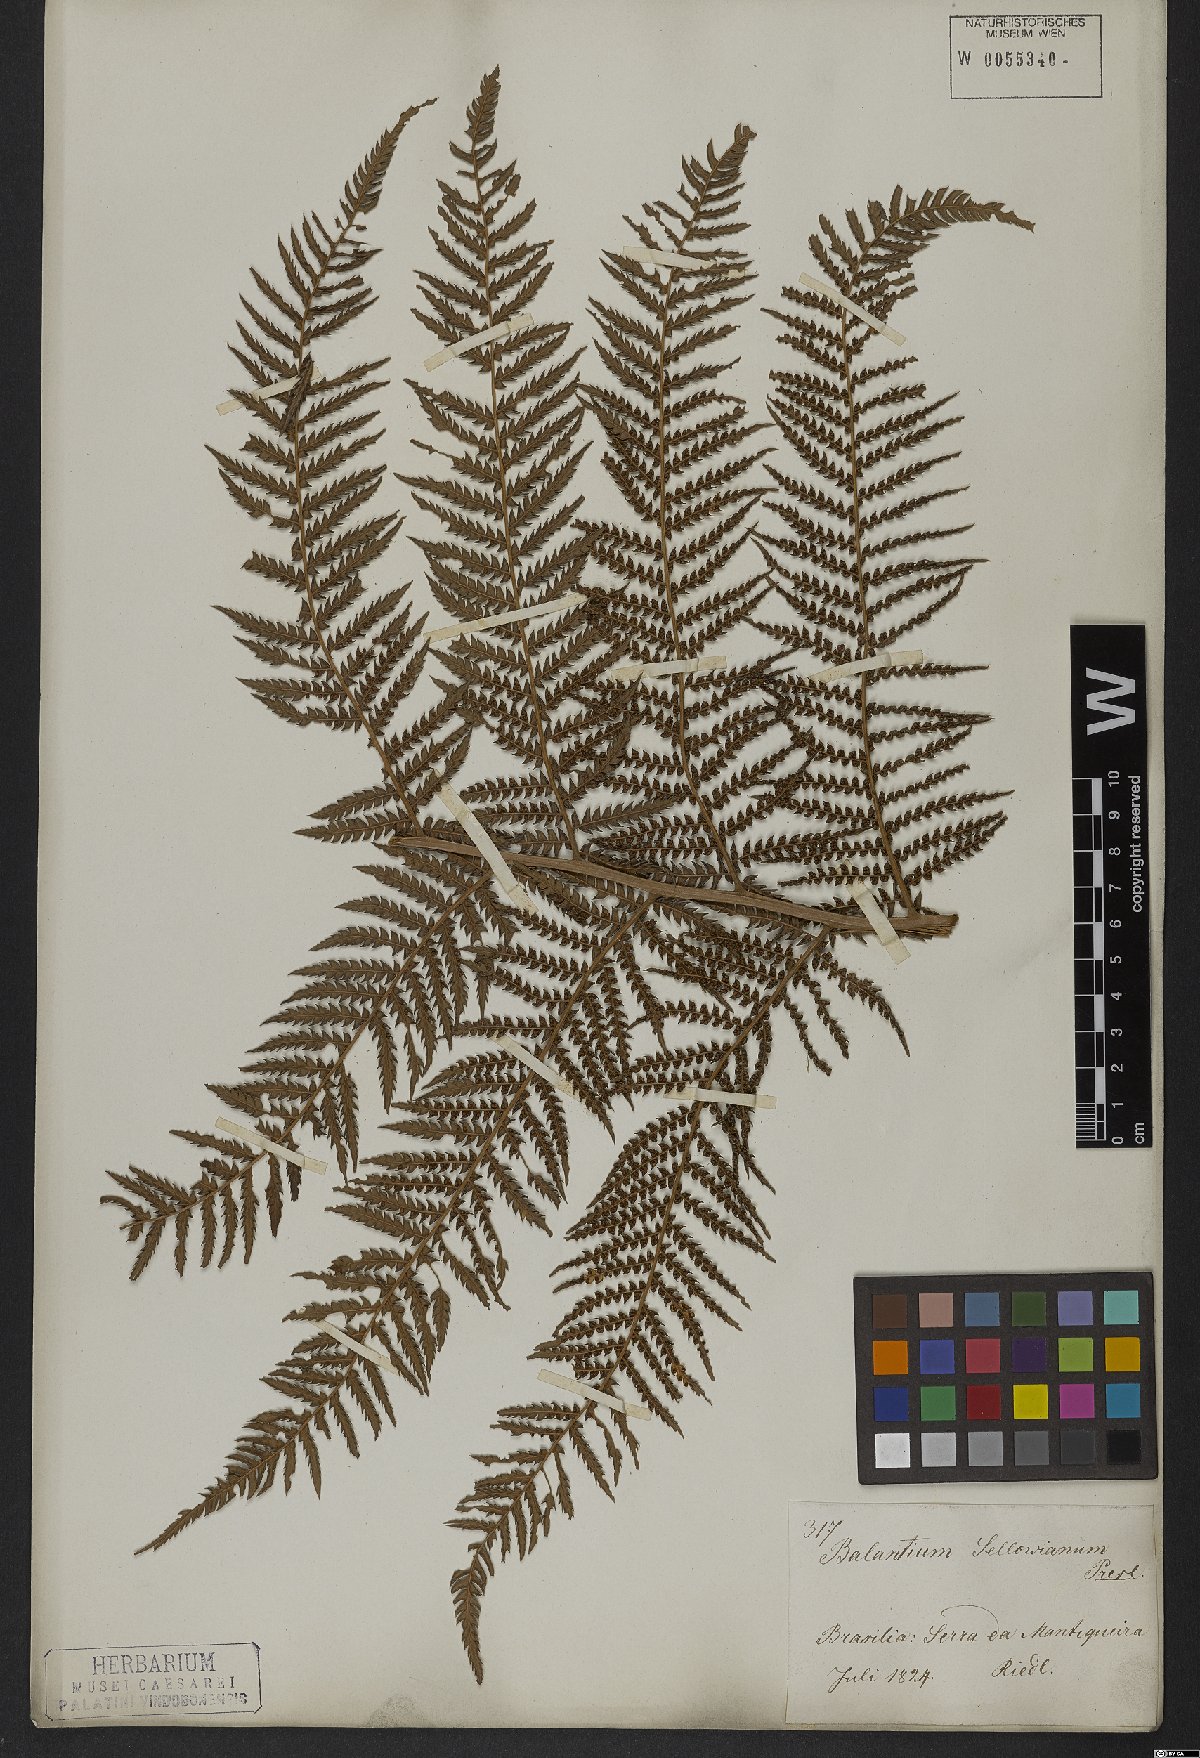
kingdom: Plantae
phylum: Tracheophyta
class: Polypodiopsida
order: Cyatheales
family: Dicksoniaceae
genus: Dicksonia
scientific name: Dicksonia sellowiana
